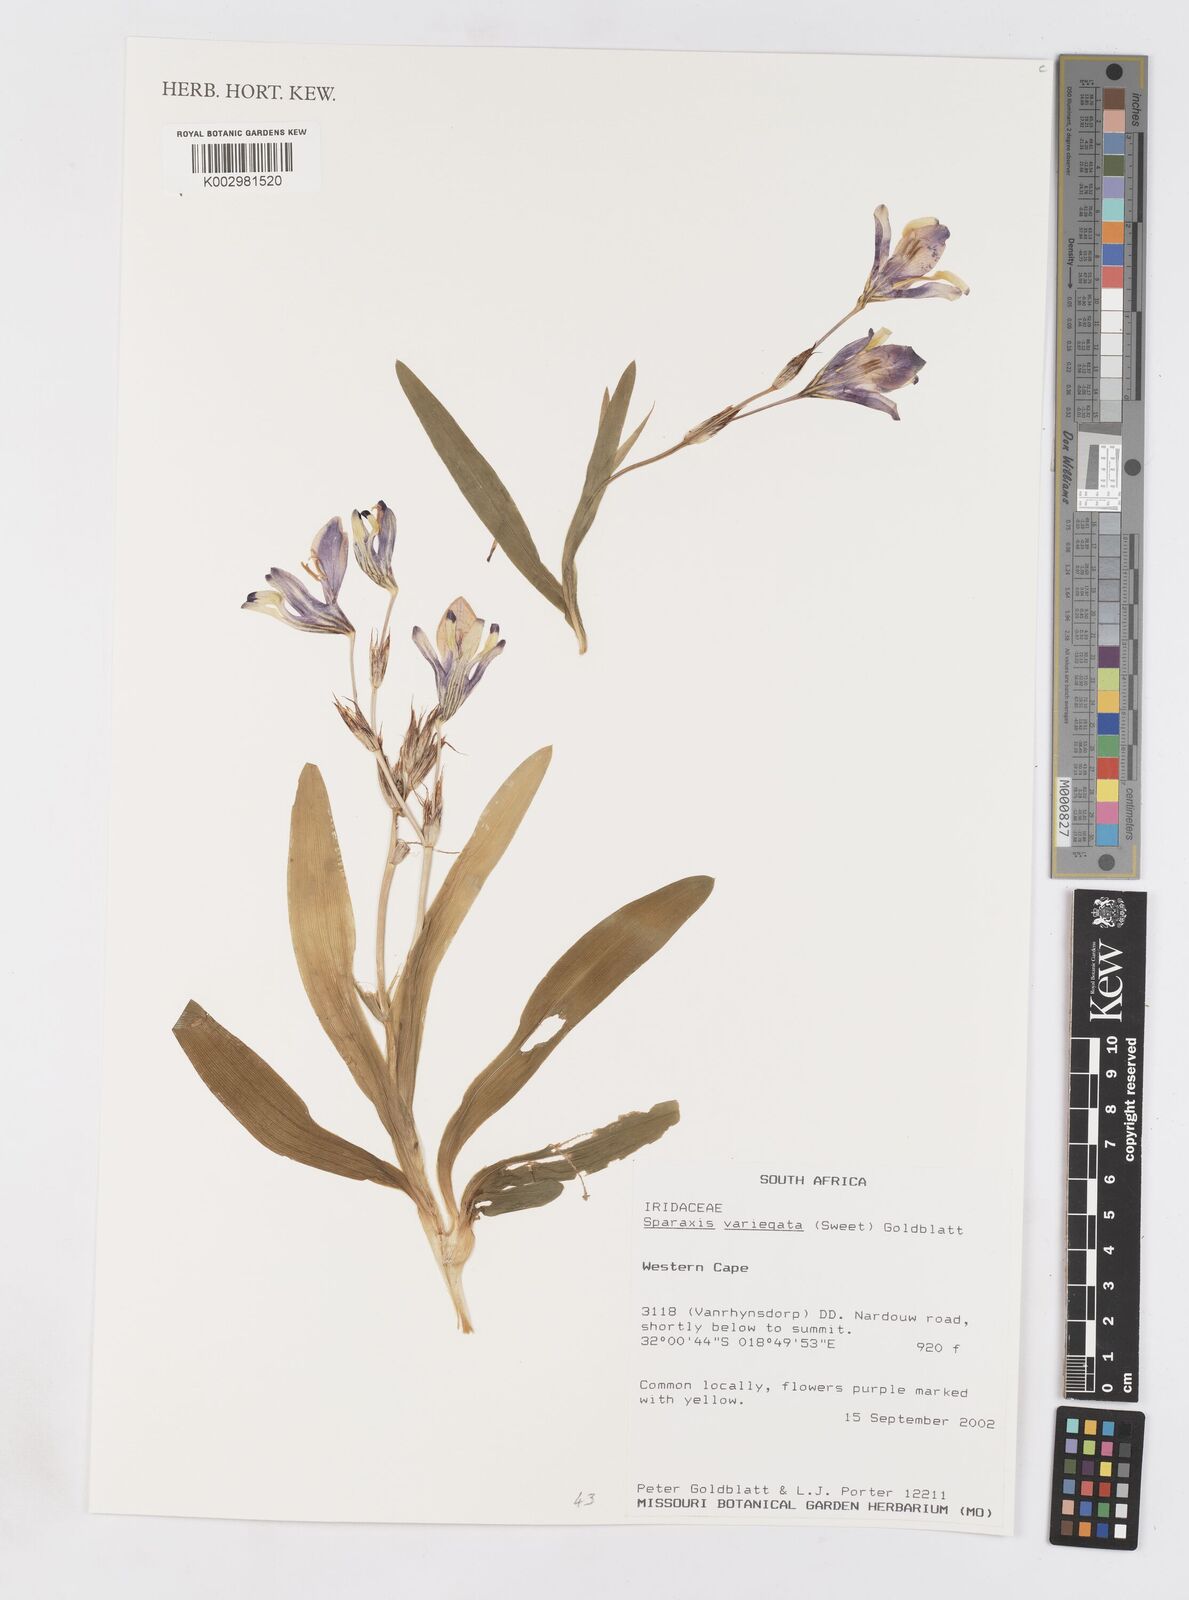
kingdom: Plantae
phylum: Tracheophyta
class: Liliopsida
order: Asparagales
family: Iridaceae
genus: Sparaxis
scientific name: Sparaxis variegata
